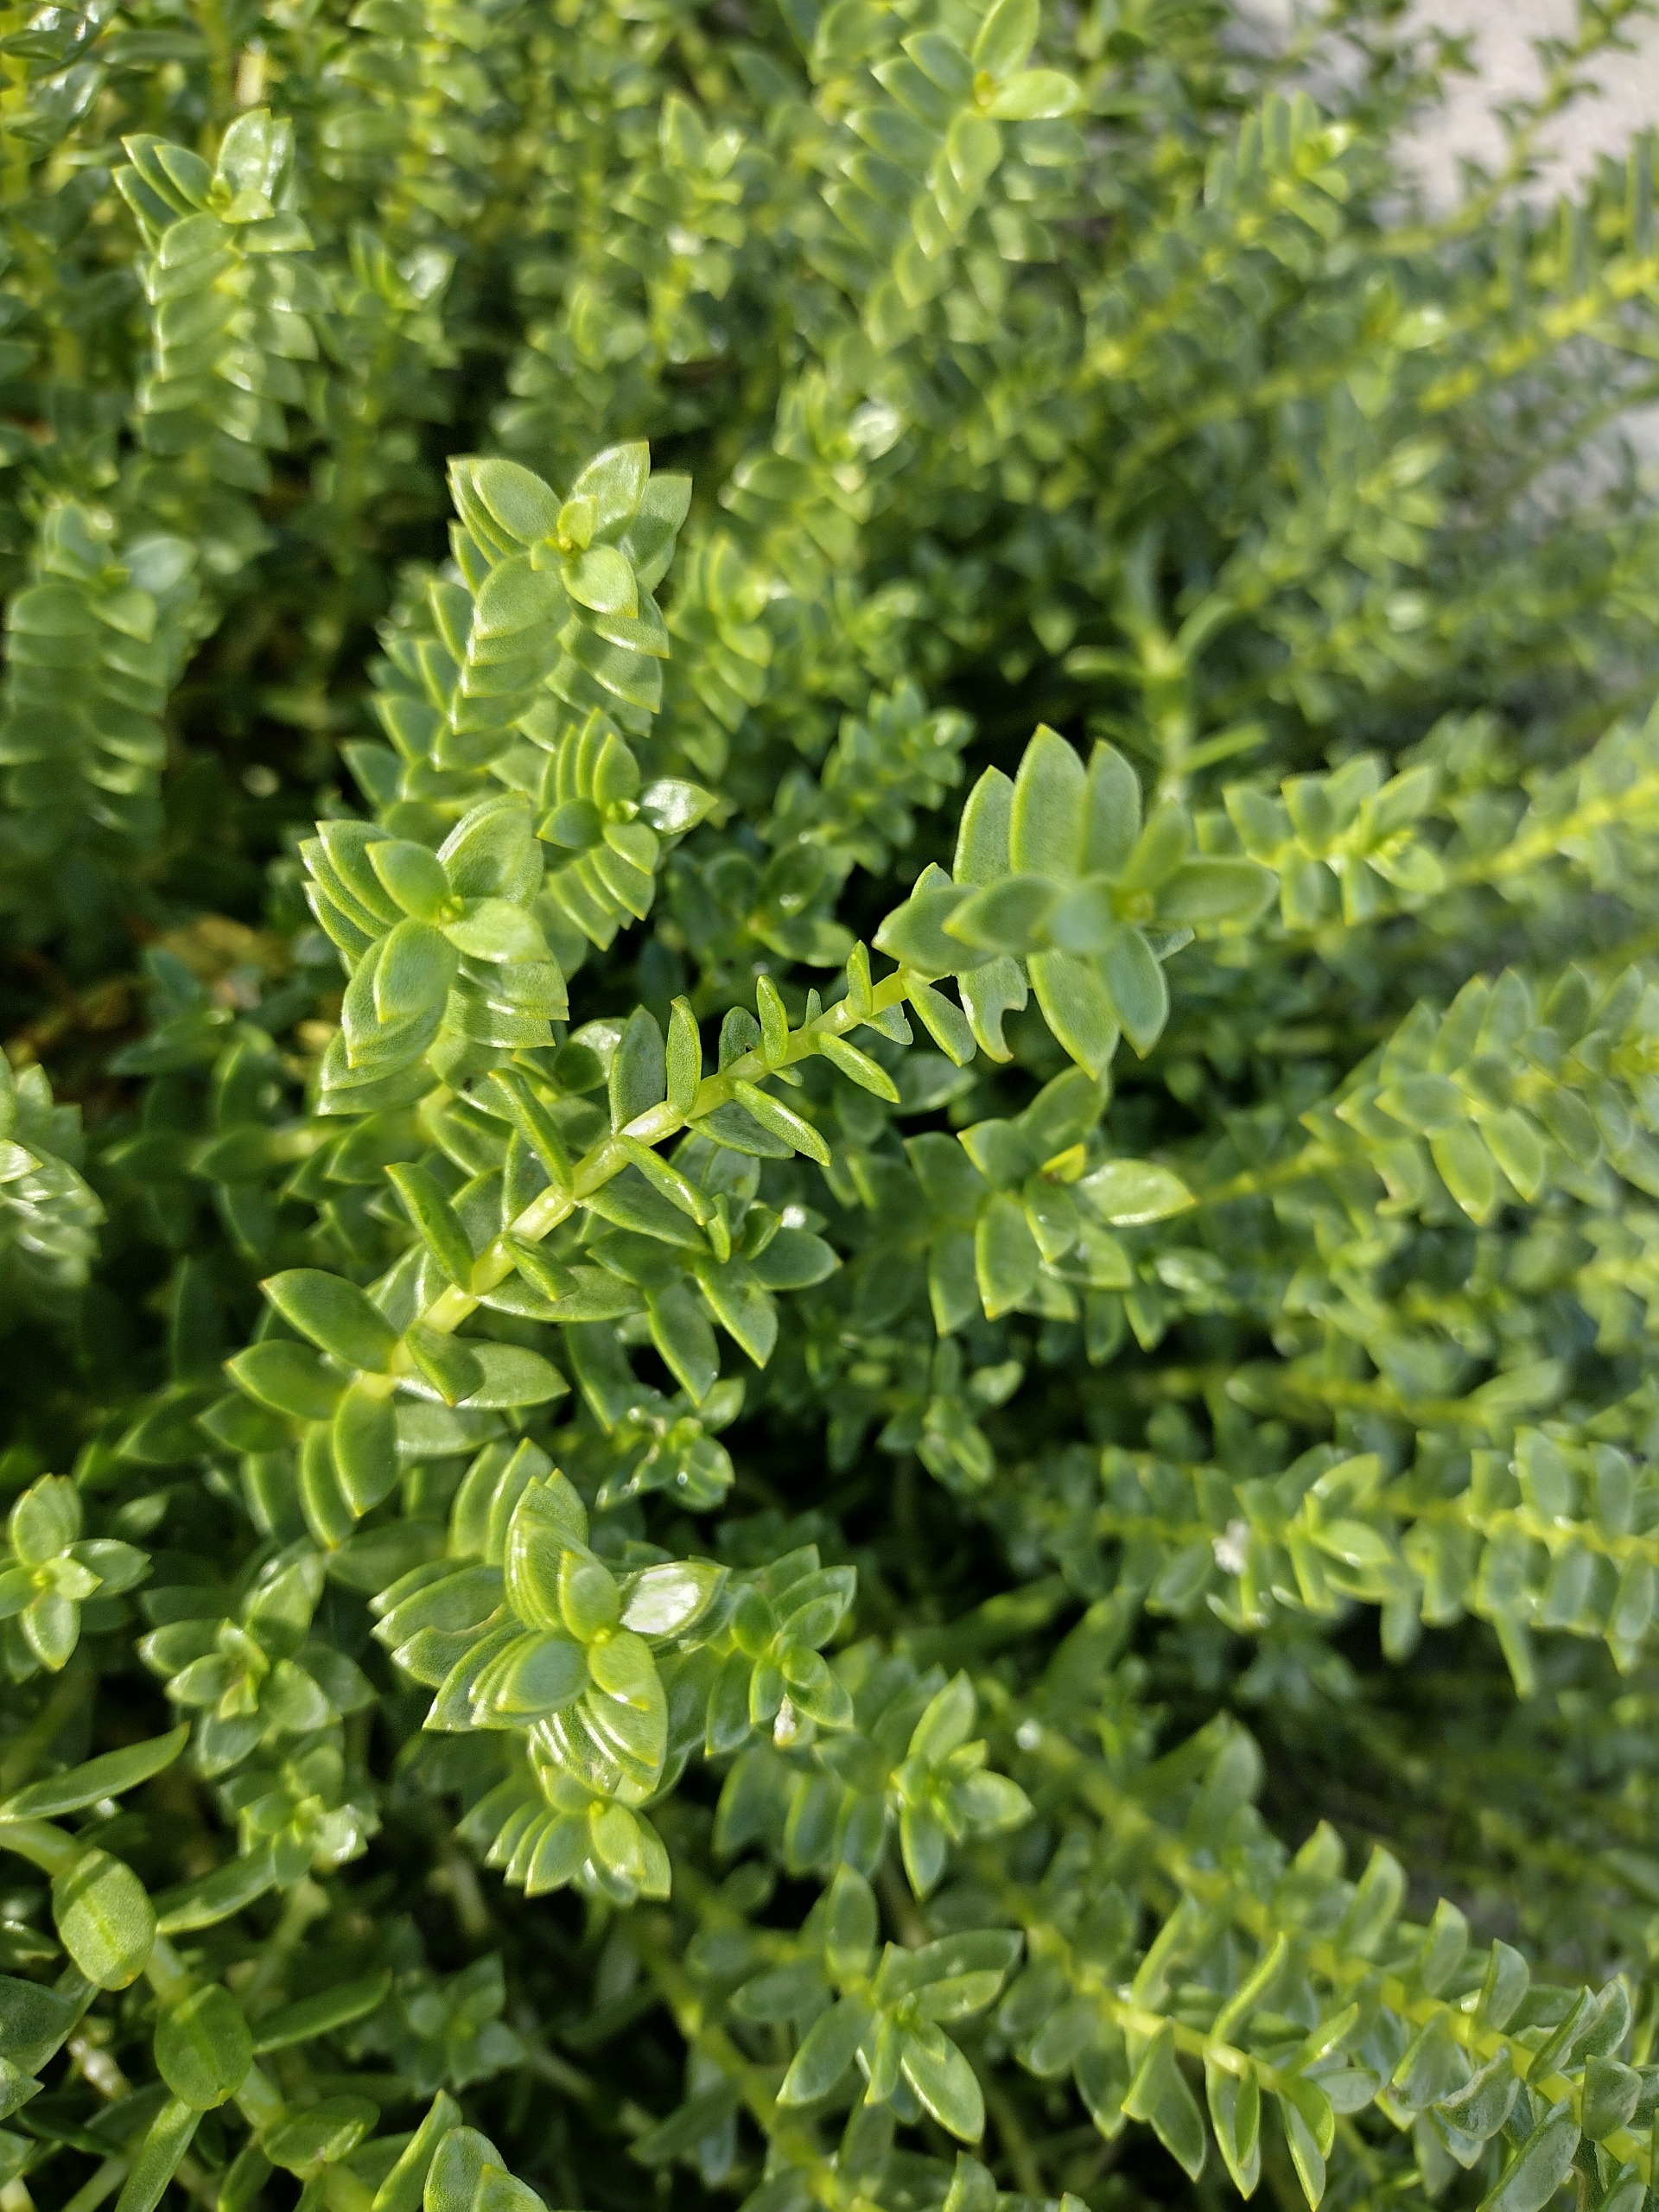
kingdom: Plantae
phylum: Tracheophyta
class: Magnoliopsida
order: Caryophyllales
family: Caryophyllaceae
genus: Honckenya
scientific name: Honckenya peploides
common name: Strandarve
